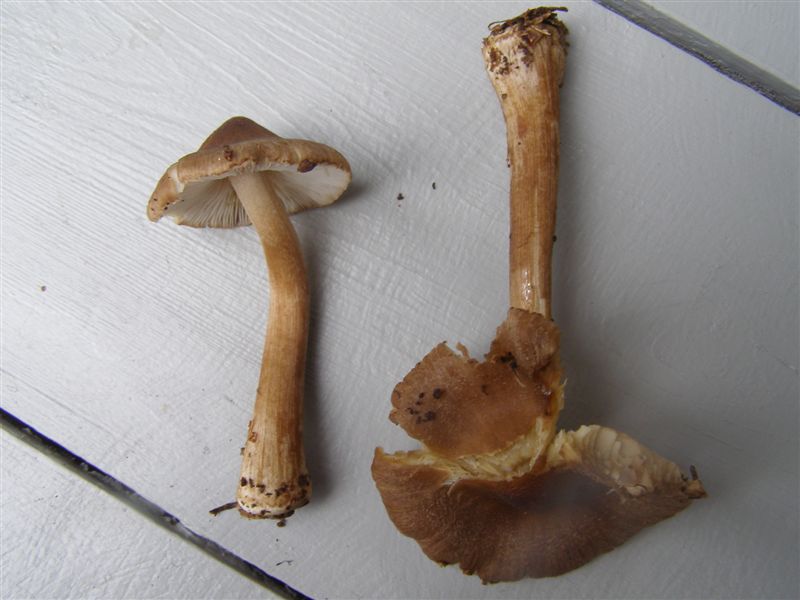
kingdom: Fungi
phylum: Basidiomycota
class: Agaricomycetes
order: Agaricales
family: Inocybaceae
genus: Inocybe
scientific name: Inocybe napipes
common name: roeknoldet trævlhat
